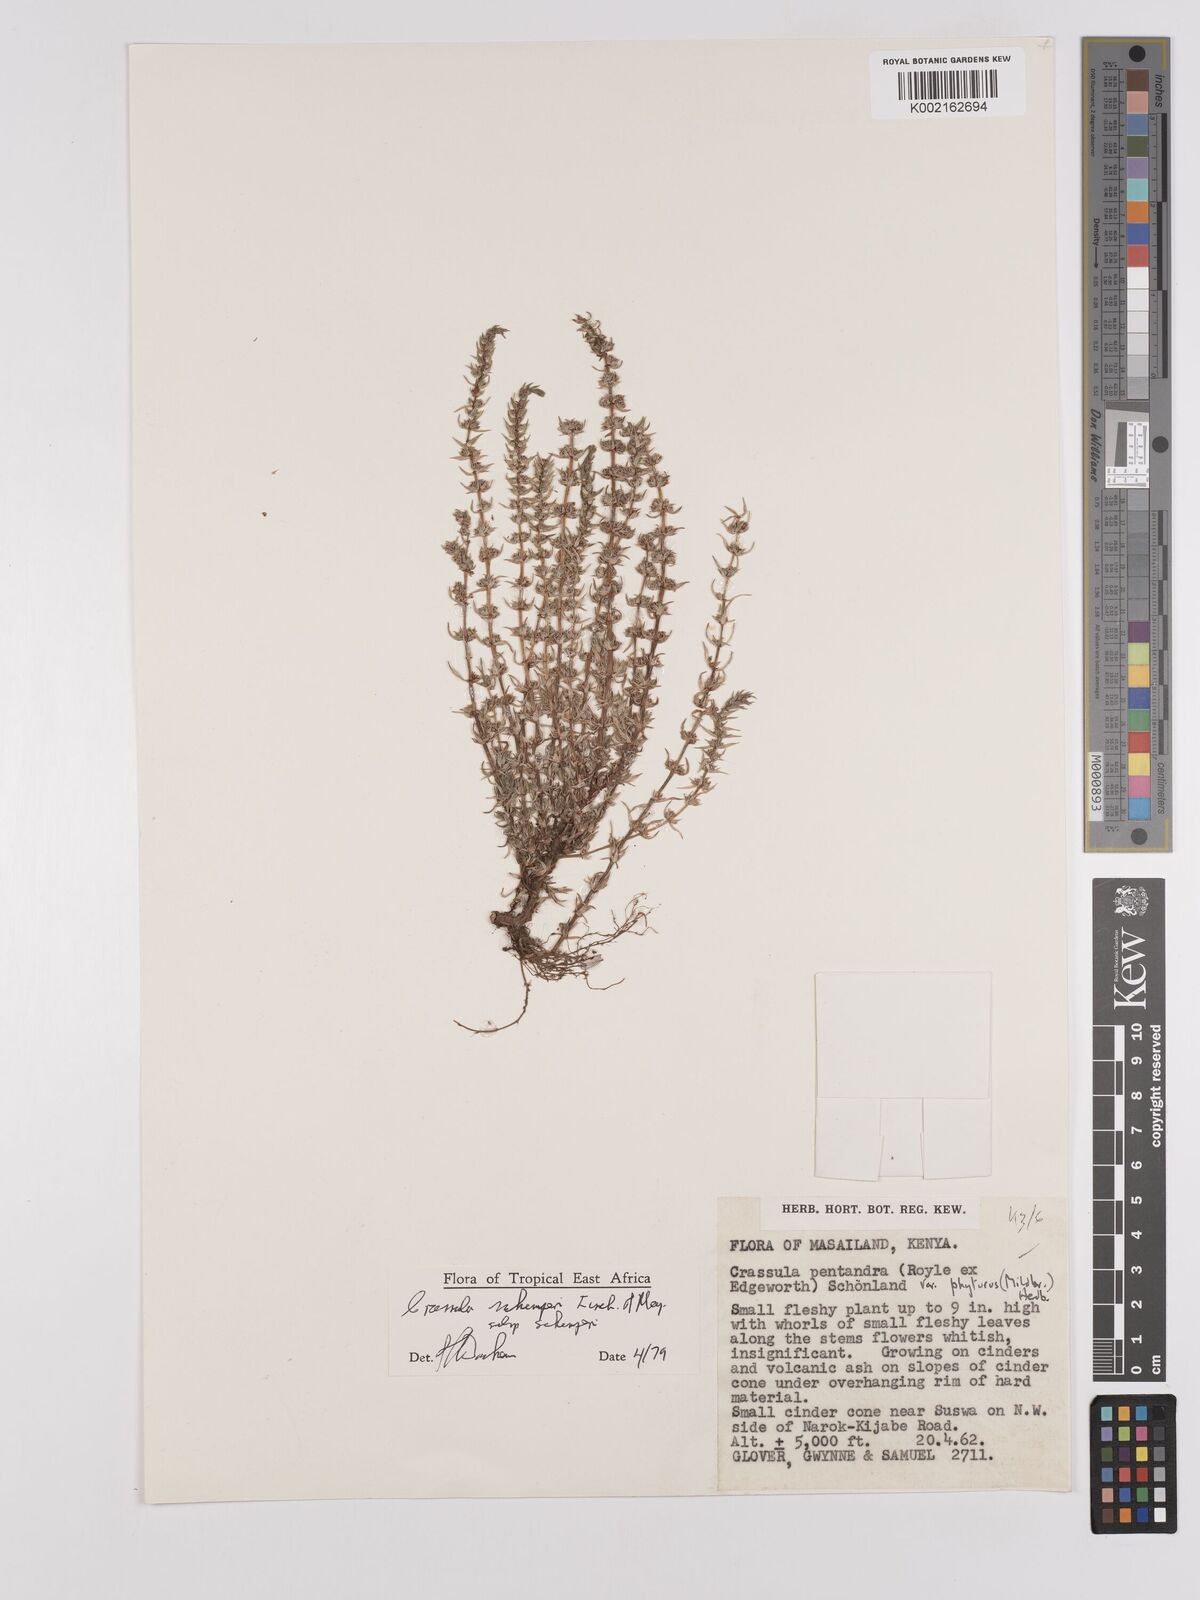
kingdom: Plantae
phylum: Tracheophyta
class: Magnoliopsida
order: Saxifragales
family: Crassulaceae
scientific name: Crassulaceae
